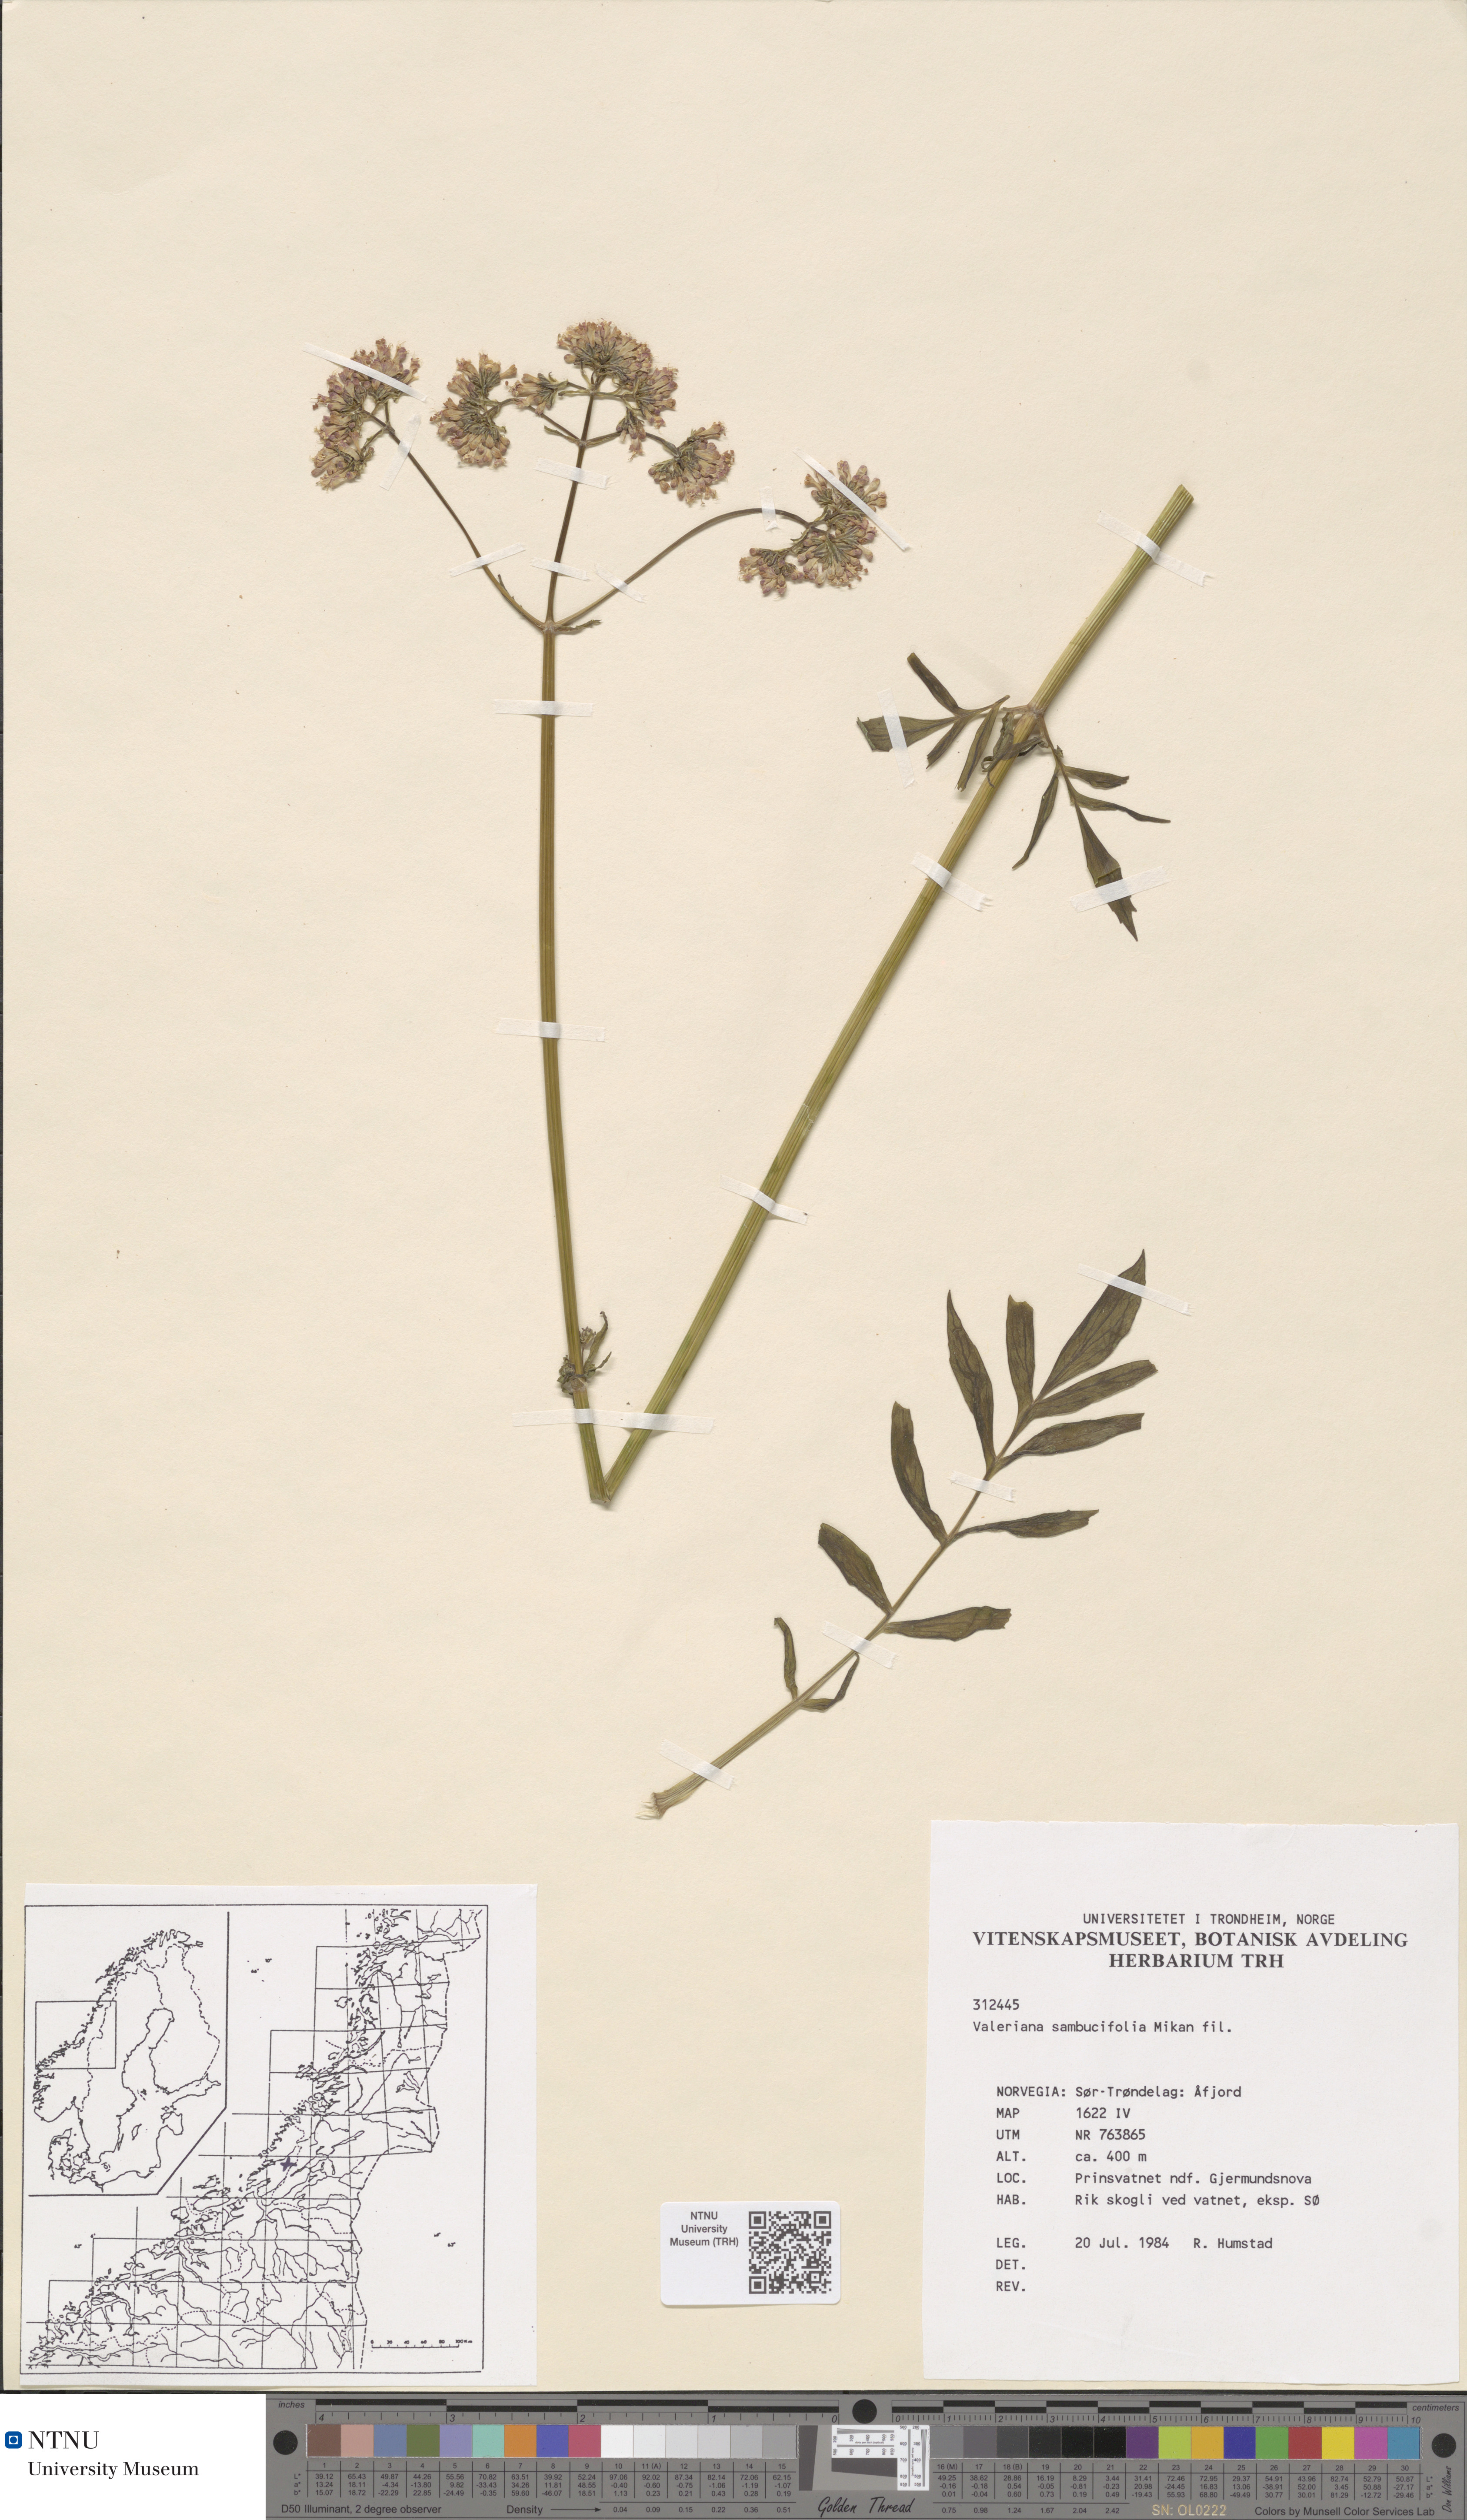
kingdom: Plantae
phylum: Tracheophyta
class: Magnoliopsida
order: Dipsacales
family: Caprifoliaceae
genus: Valeriana
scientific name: Valeriana excelsa
